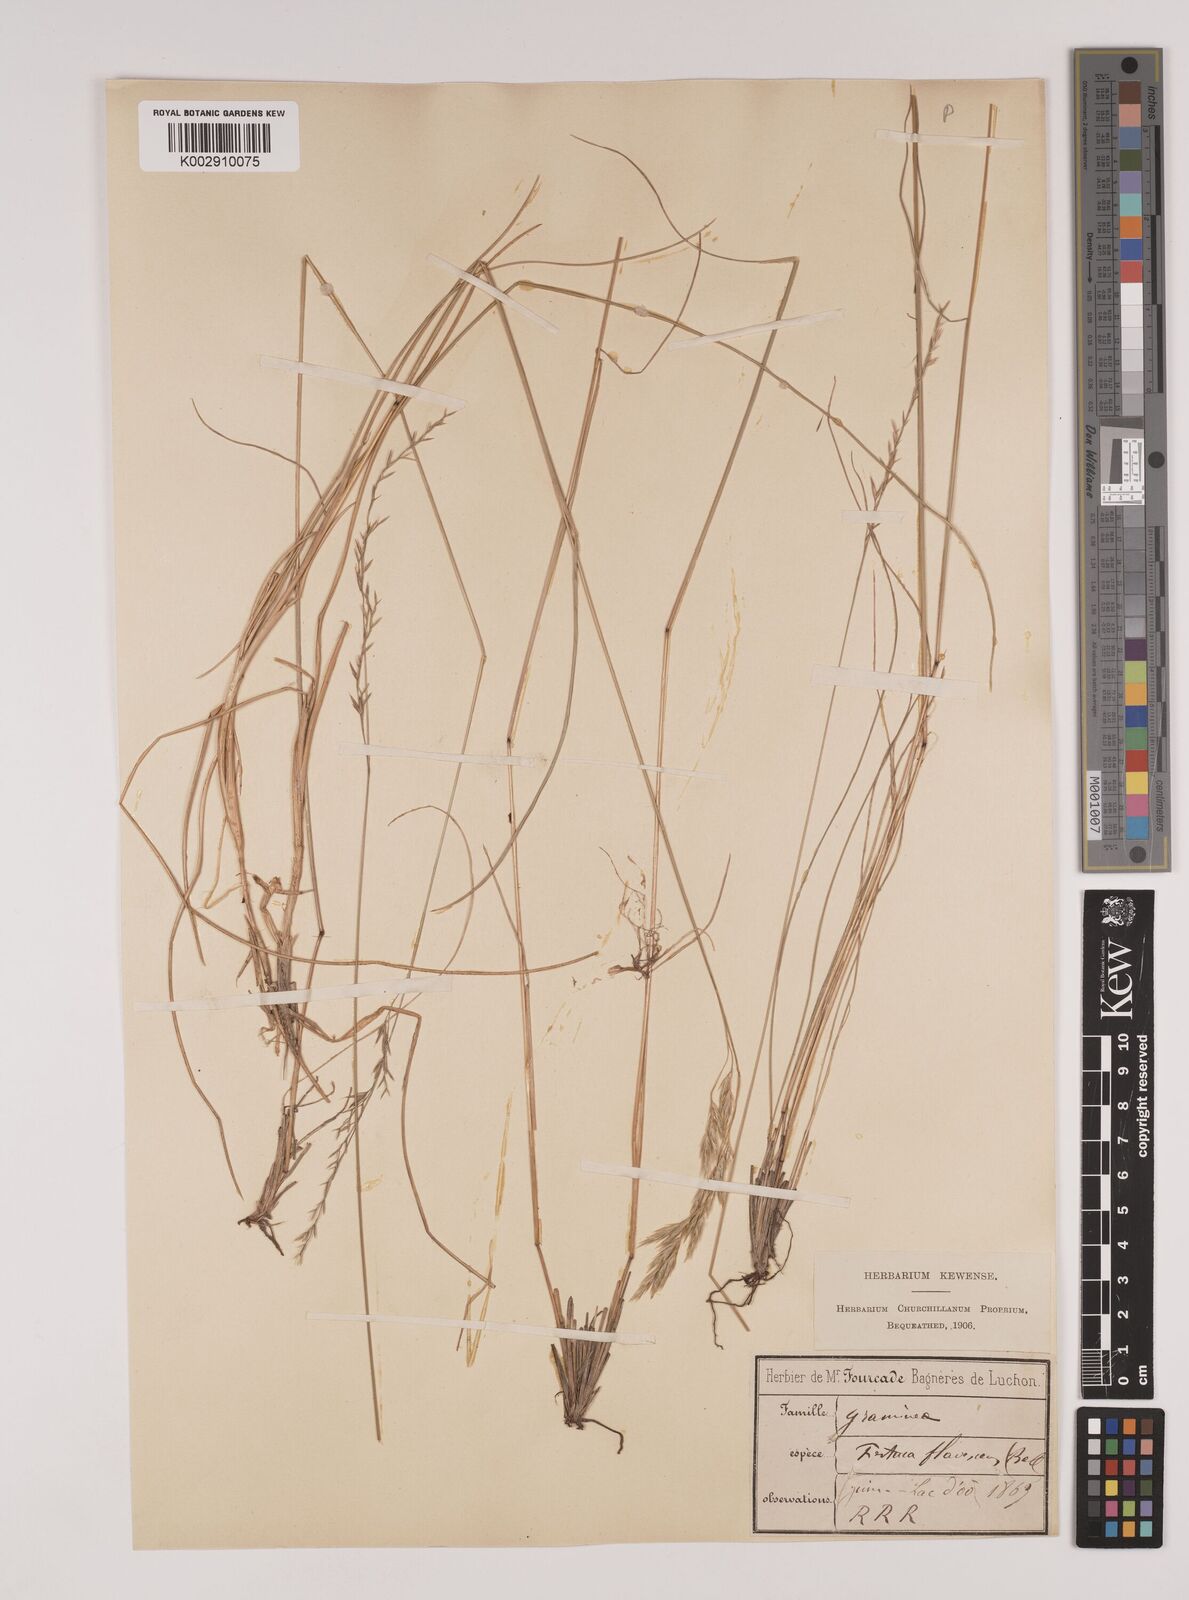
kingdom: Plantae
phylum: Tracheophyta
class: Liliopsida
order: Poales
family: Poaceae
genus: Festuca
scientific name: Festuca flavescens
